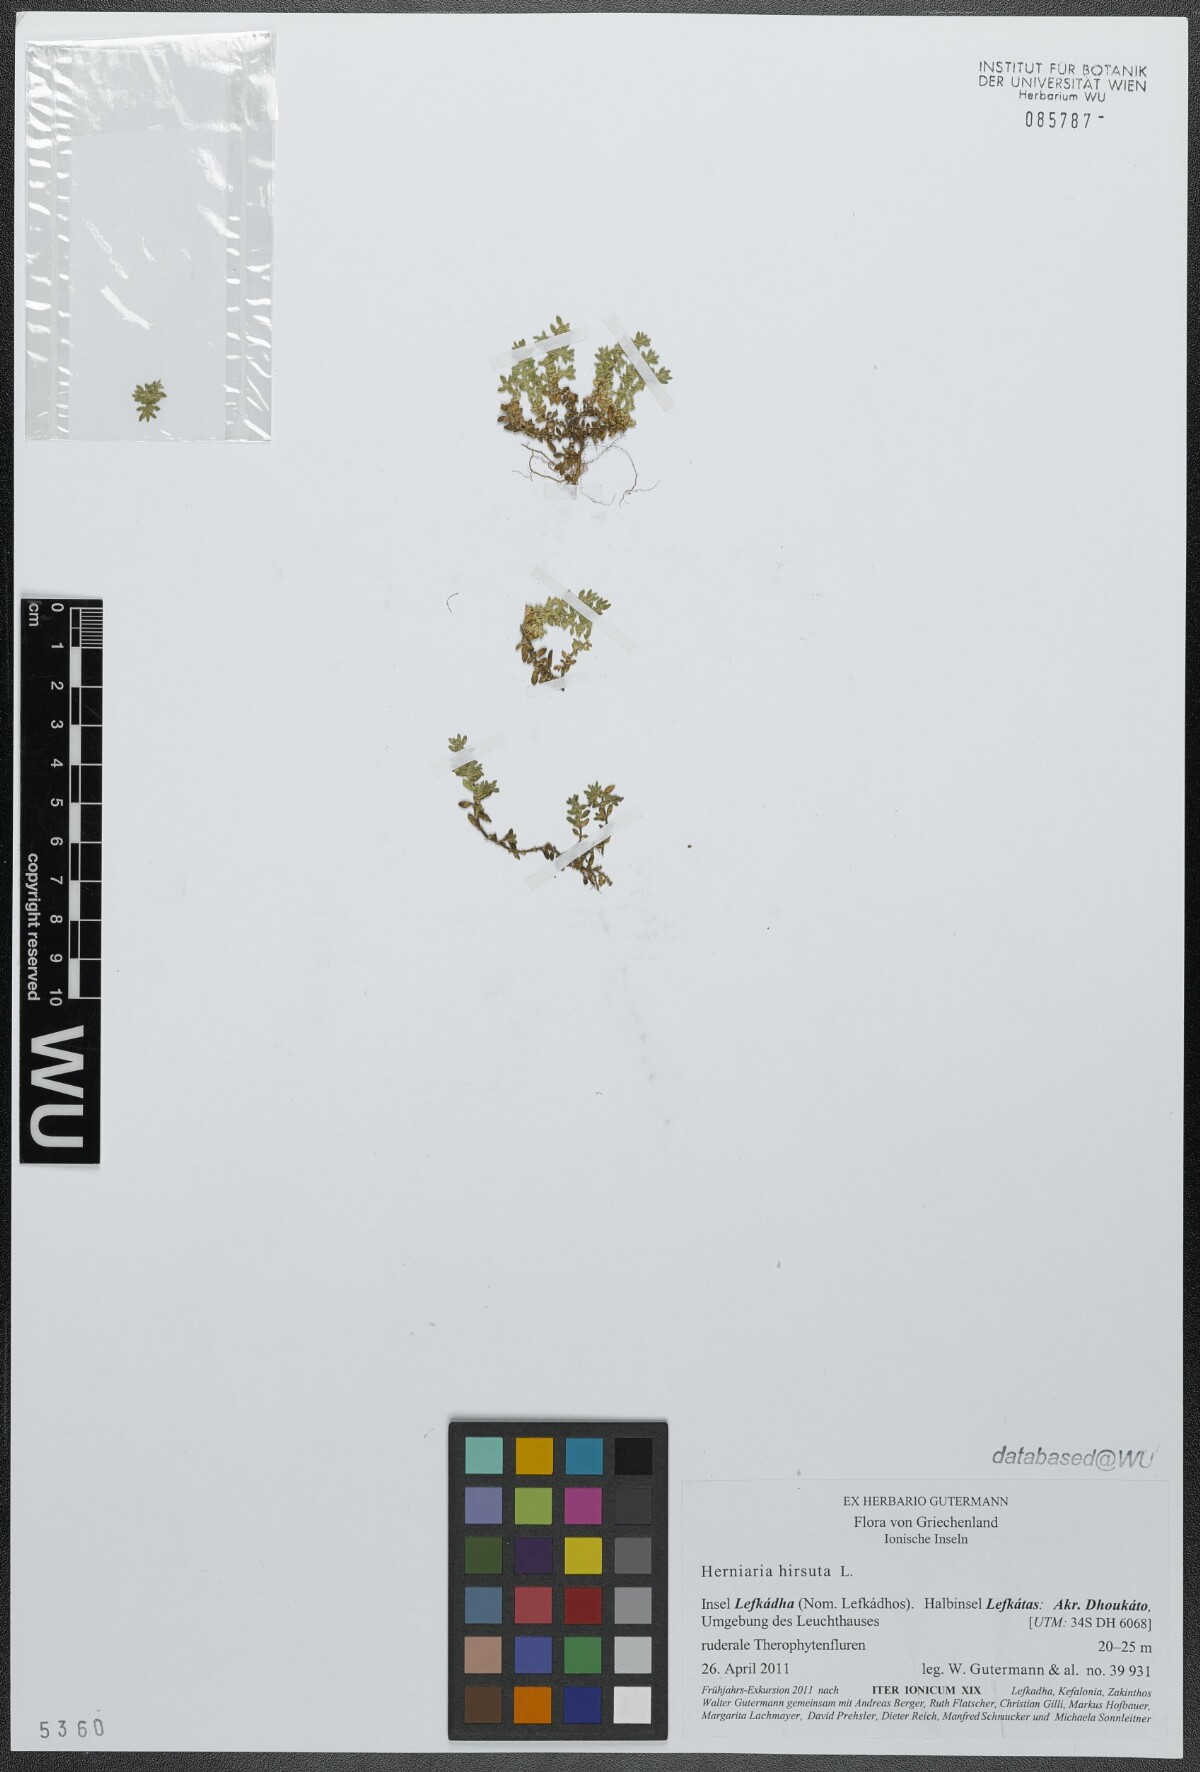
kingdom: Plantae
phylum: Tracheophyta
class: Magnoliopsida
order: Caryophyllales
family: Caryophyllaceae
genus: Herniaria
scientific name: Herniaria hirsuta
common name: Hairy rupturewort
